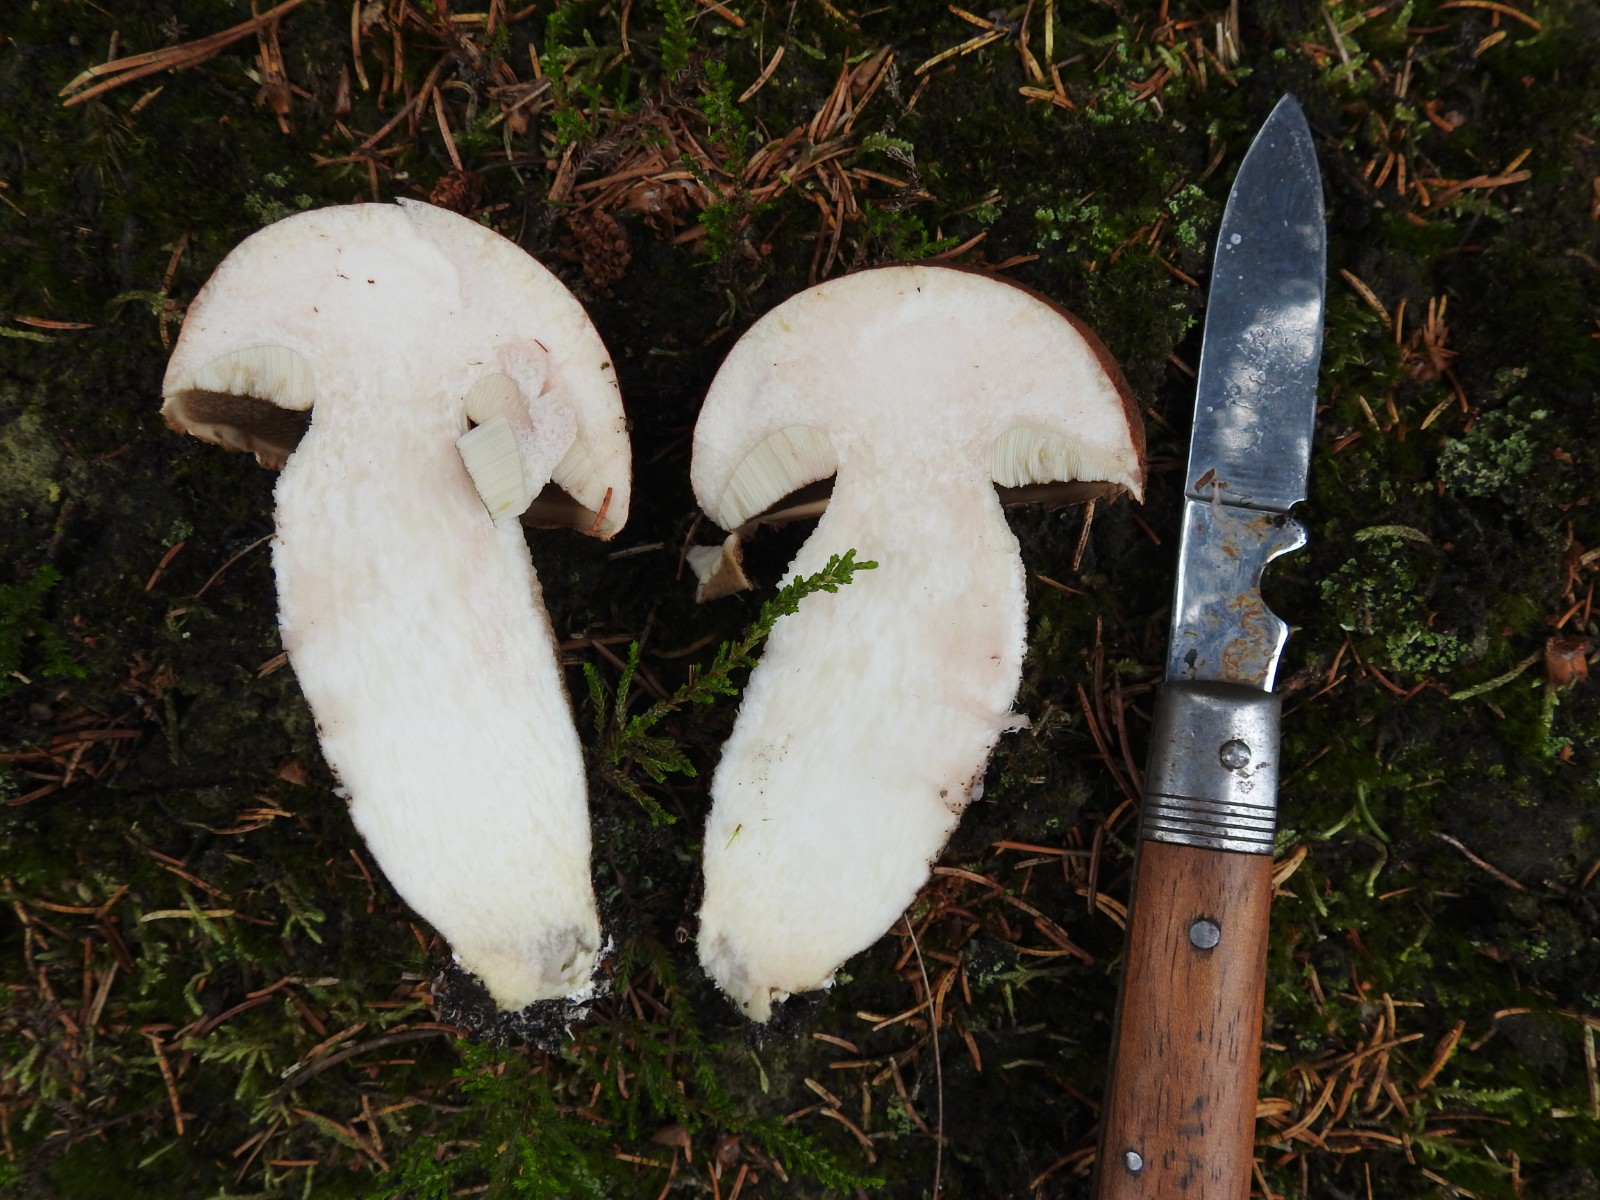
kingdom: Fungi
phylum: Basidiomycota
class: Agaricomycetes
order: Boletales
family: Boletaceae
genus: Leccinum
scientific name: Leccinum vulpinum
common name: fyrre-skælrørhat
